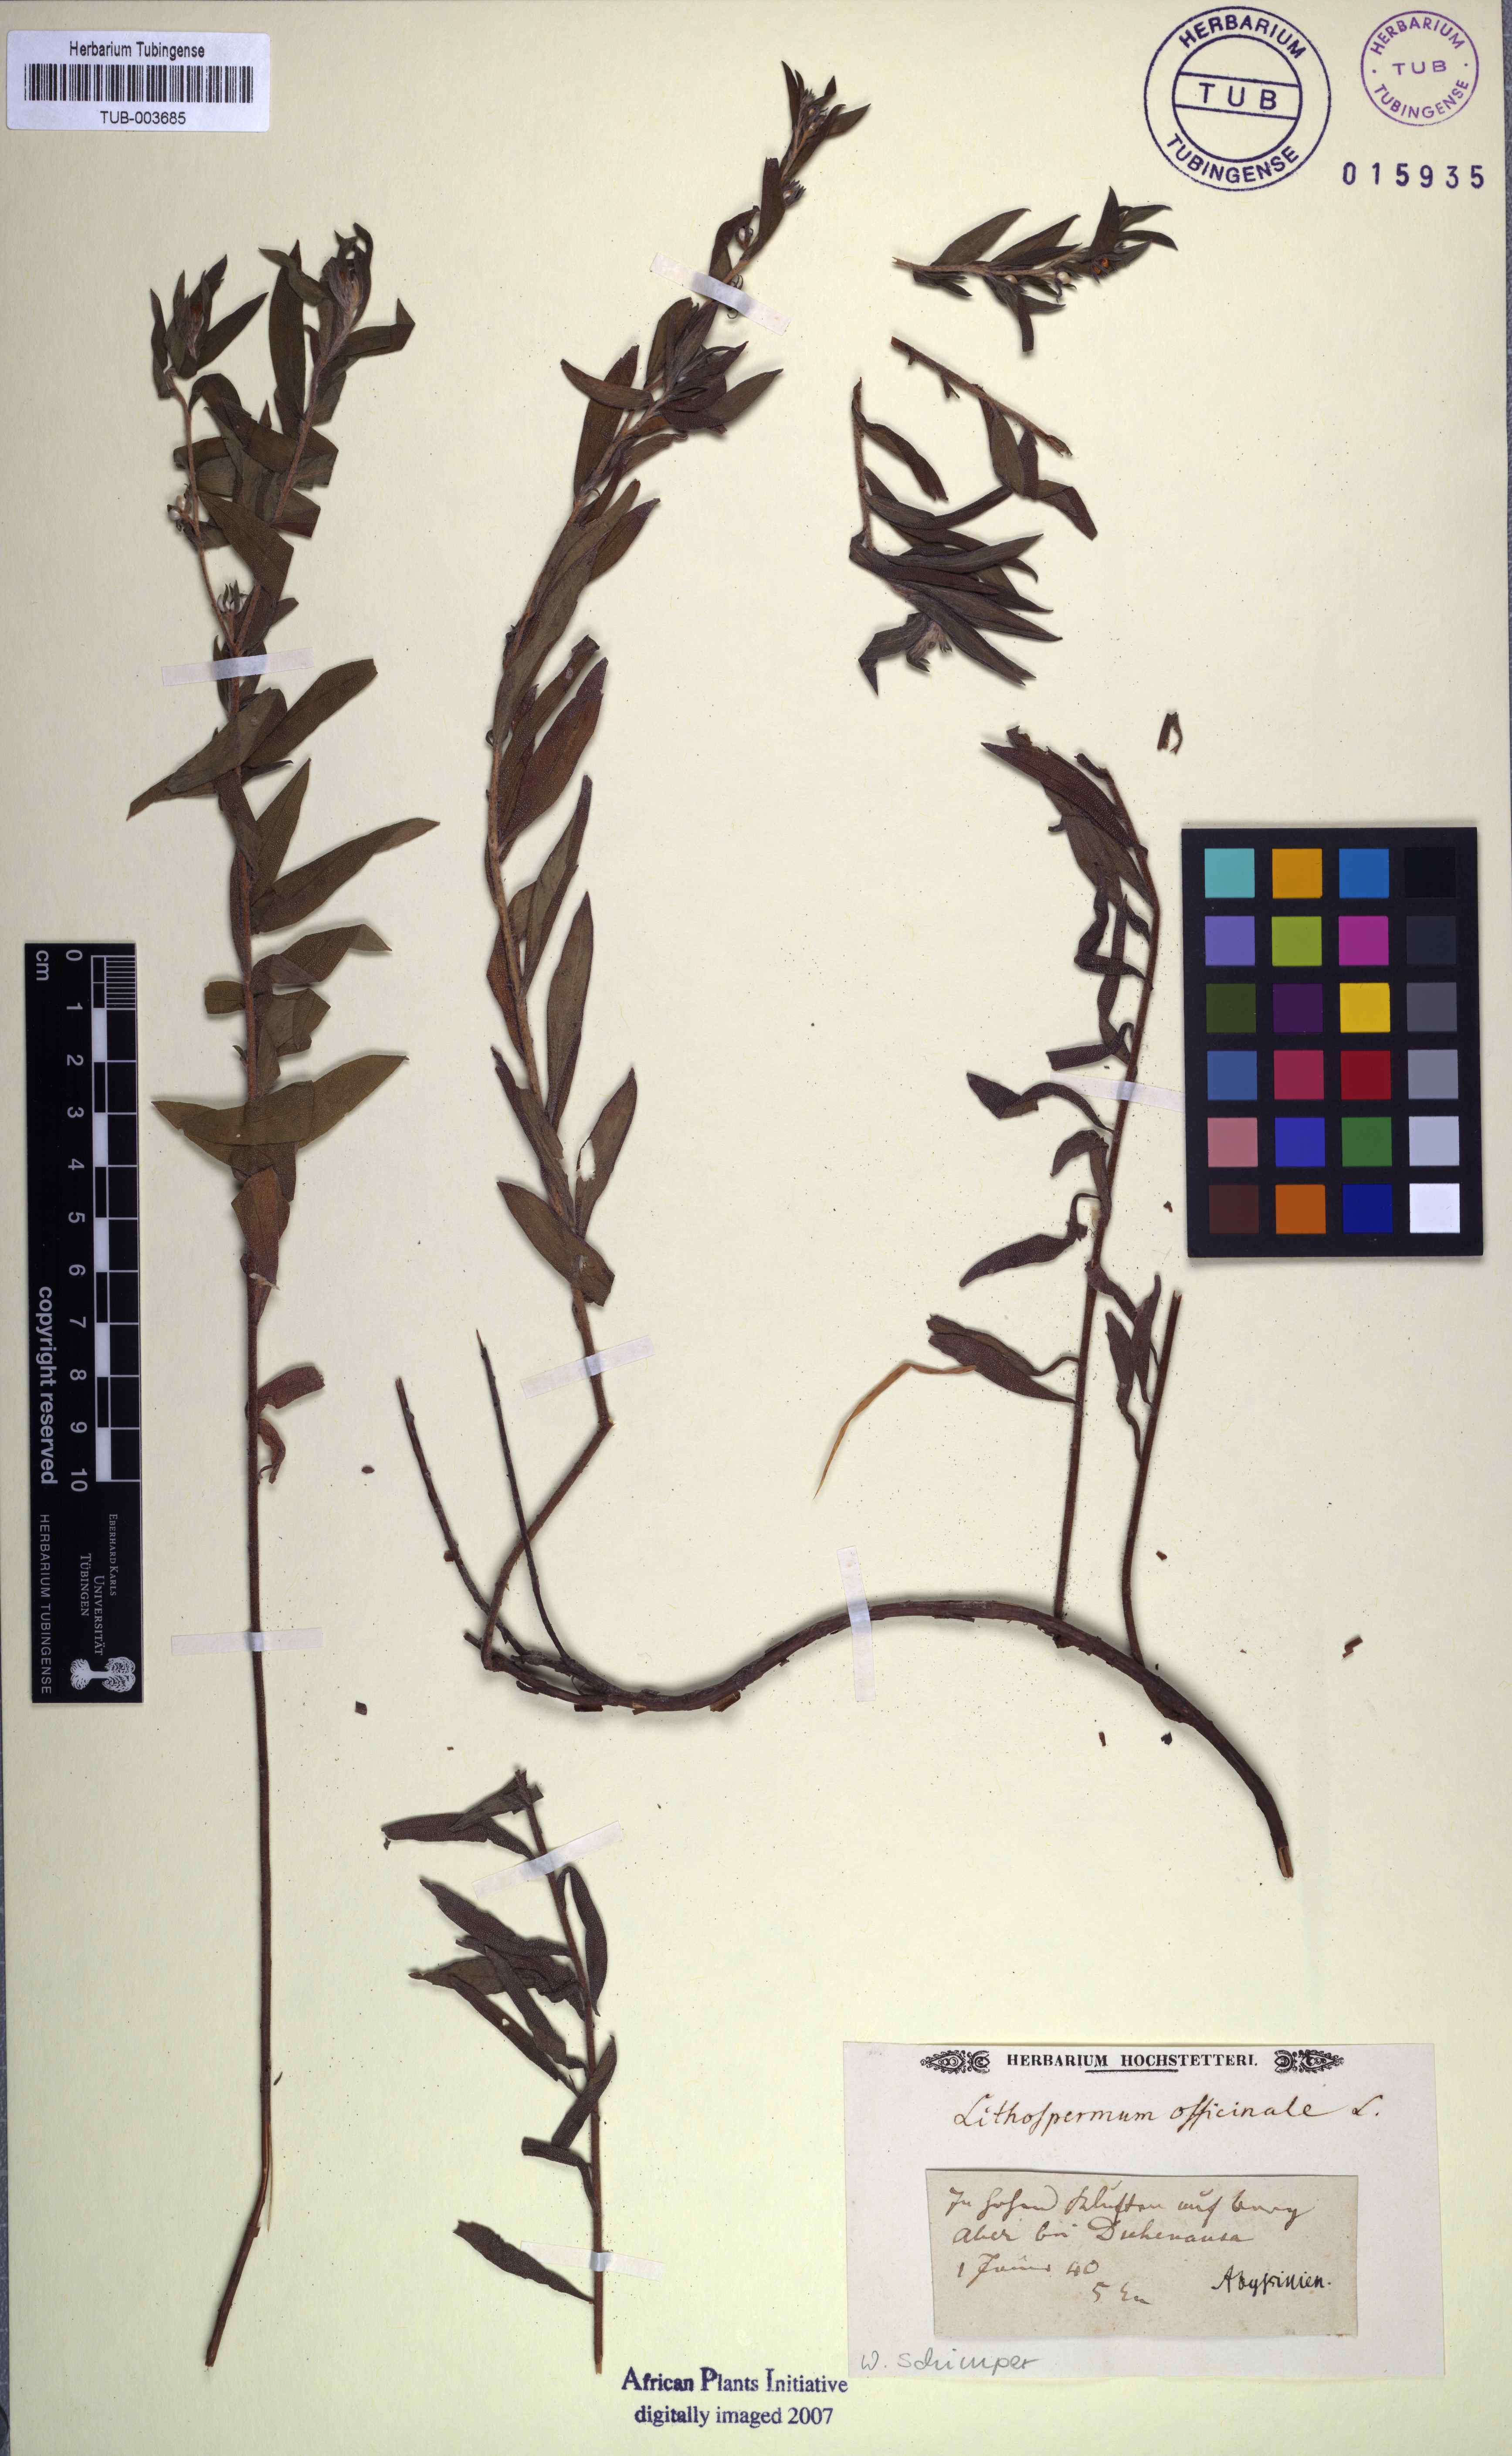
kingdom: Plantae
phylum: Tracheophyta
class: Magnoliopsida
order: Boraginales
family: Boraginaceae
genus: Lithospermum
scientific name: Lithospermum officinale
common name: Common gromwell
